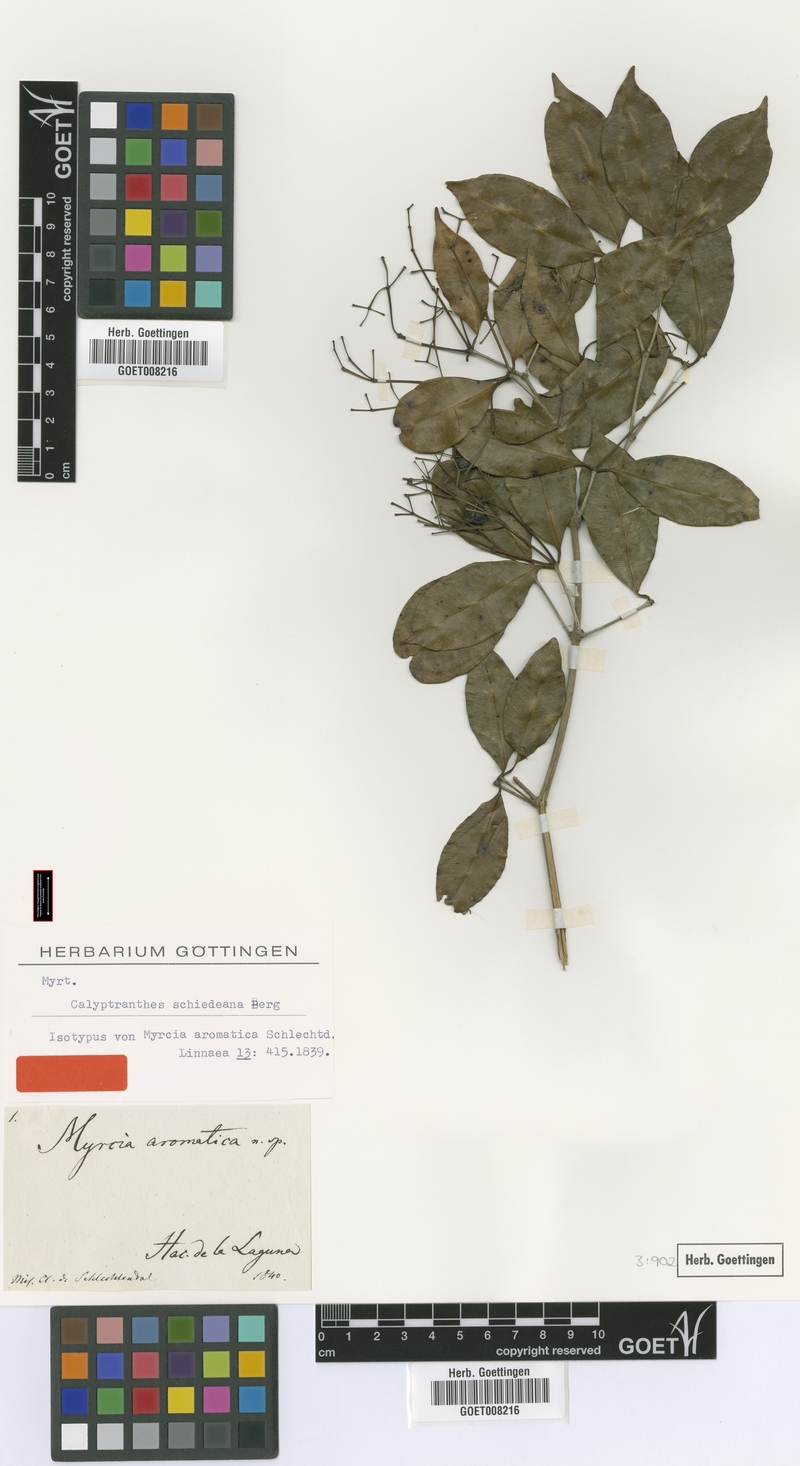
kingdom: Plantae
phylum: Tracheophyta
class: Magnoliopsida
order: Myrtales
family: Myrtaceae
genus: Myrcia
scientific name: Myrcia schiedeana
